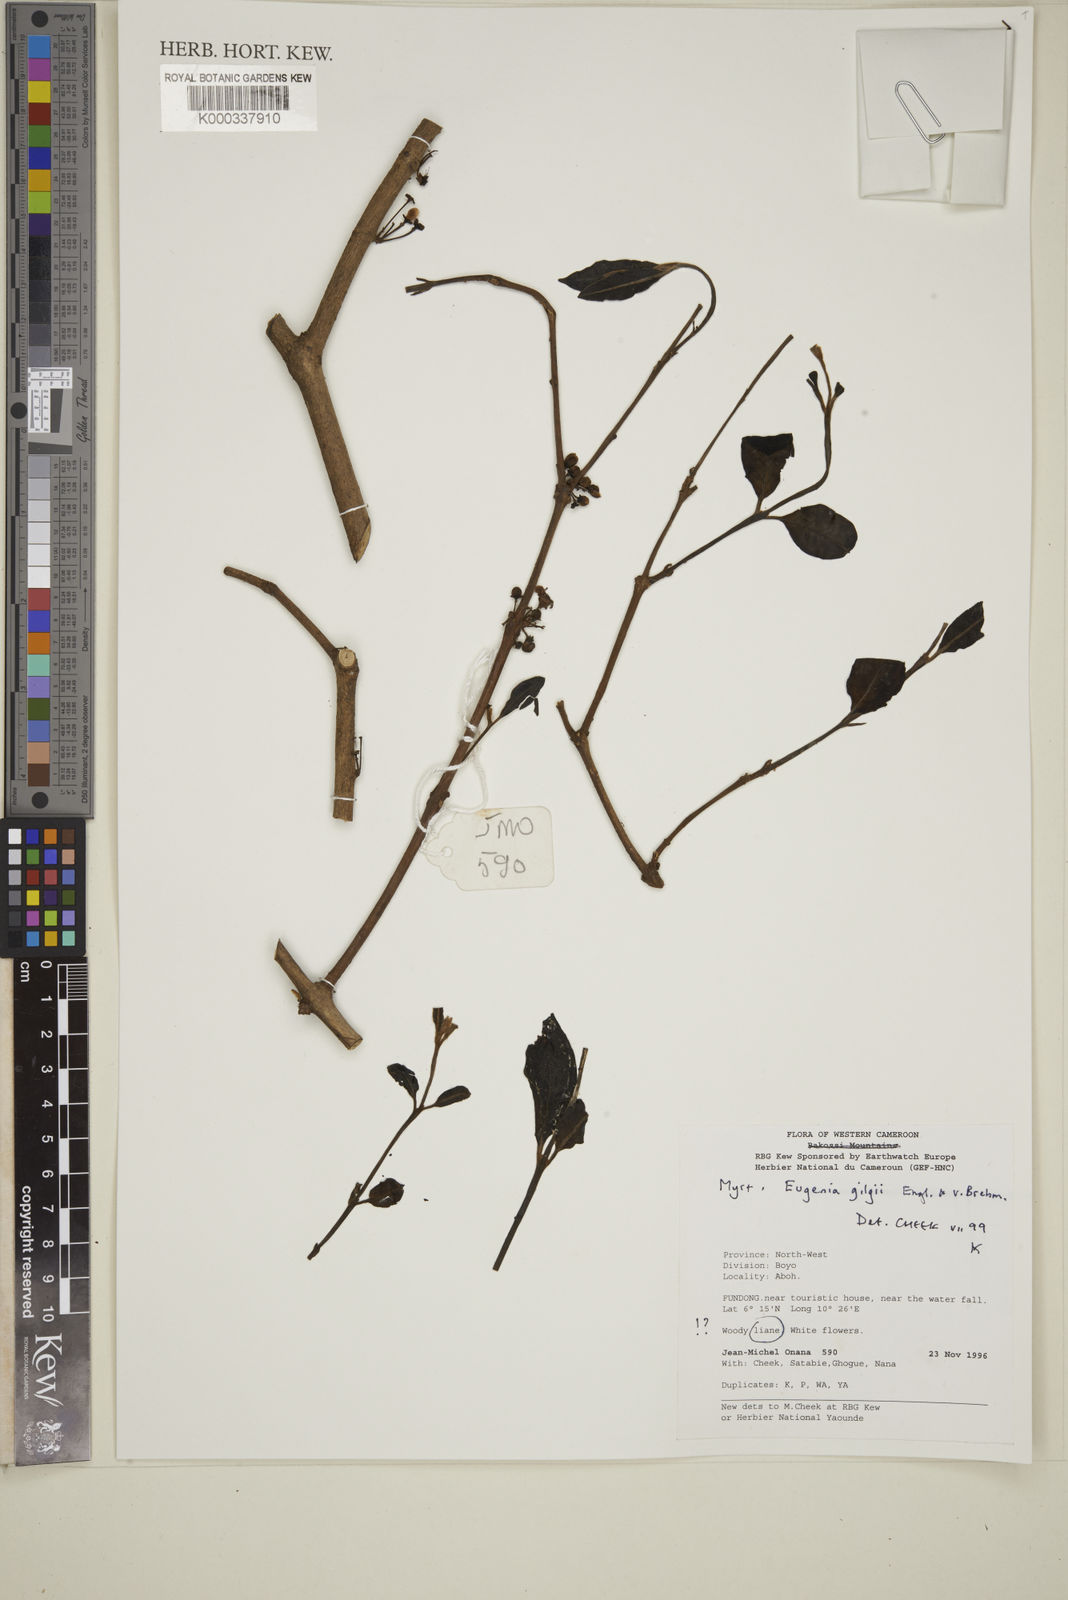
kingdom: Plantae
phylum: Tracheophyta
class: Magnoliopsida
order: Myrtales
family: Myrtaceae
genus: Eugenia
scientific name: Eugenia gilgii
